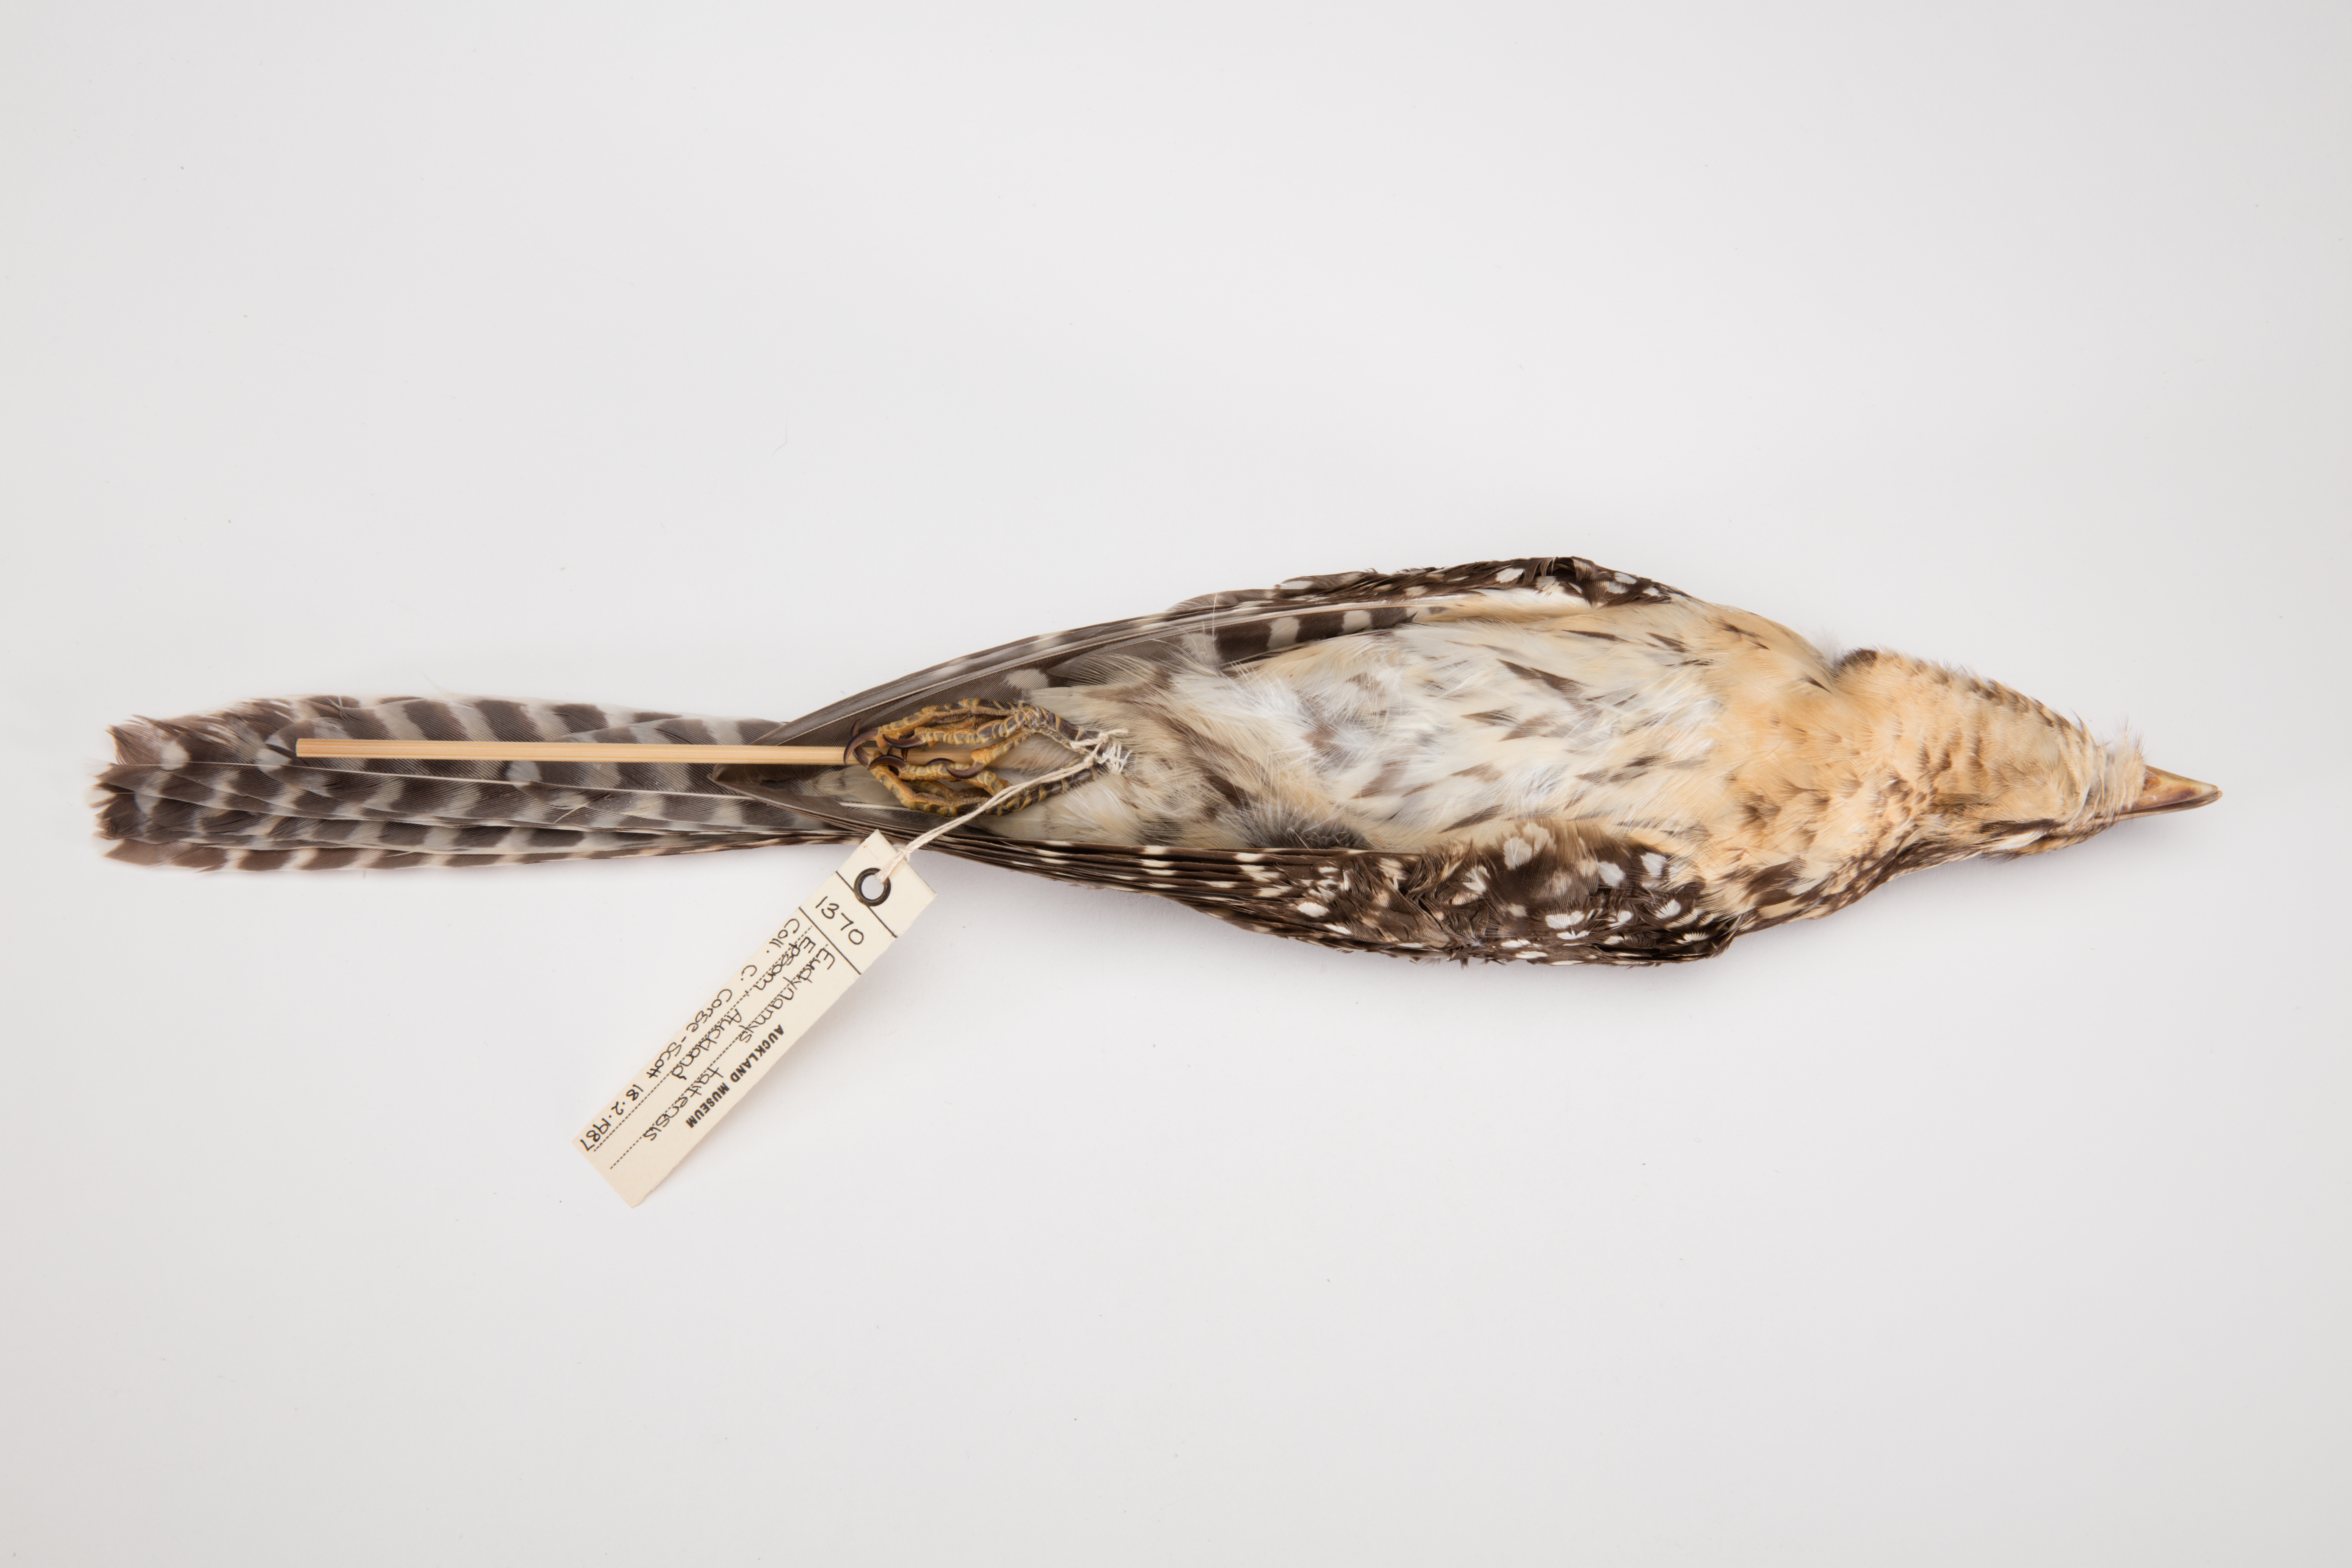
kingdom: Animalia
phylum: Chordata
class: Aves
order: Cuculiformes
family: Cuculidae
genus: Urodynamis
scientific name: Urodynamis taitensis
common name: Long-tailed koel
